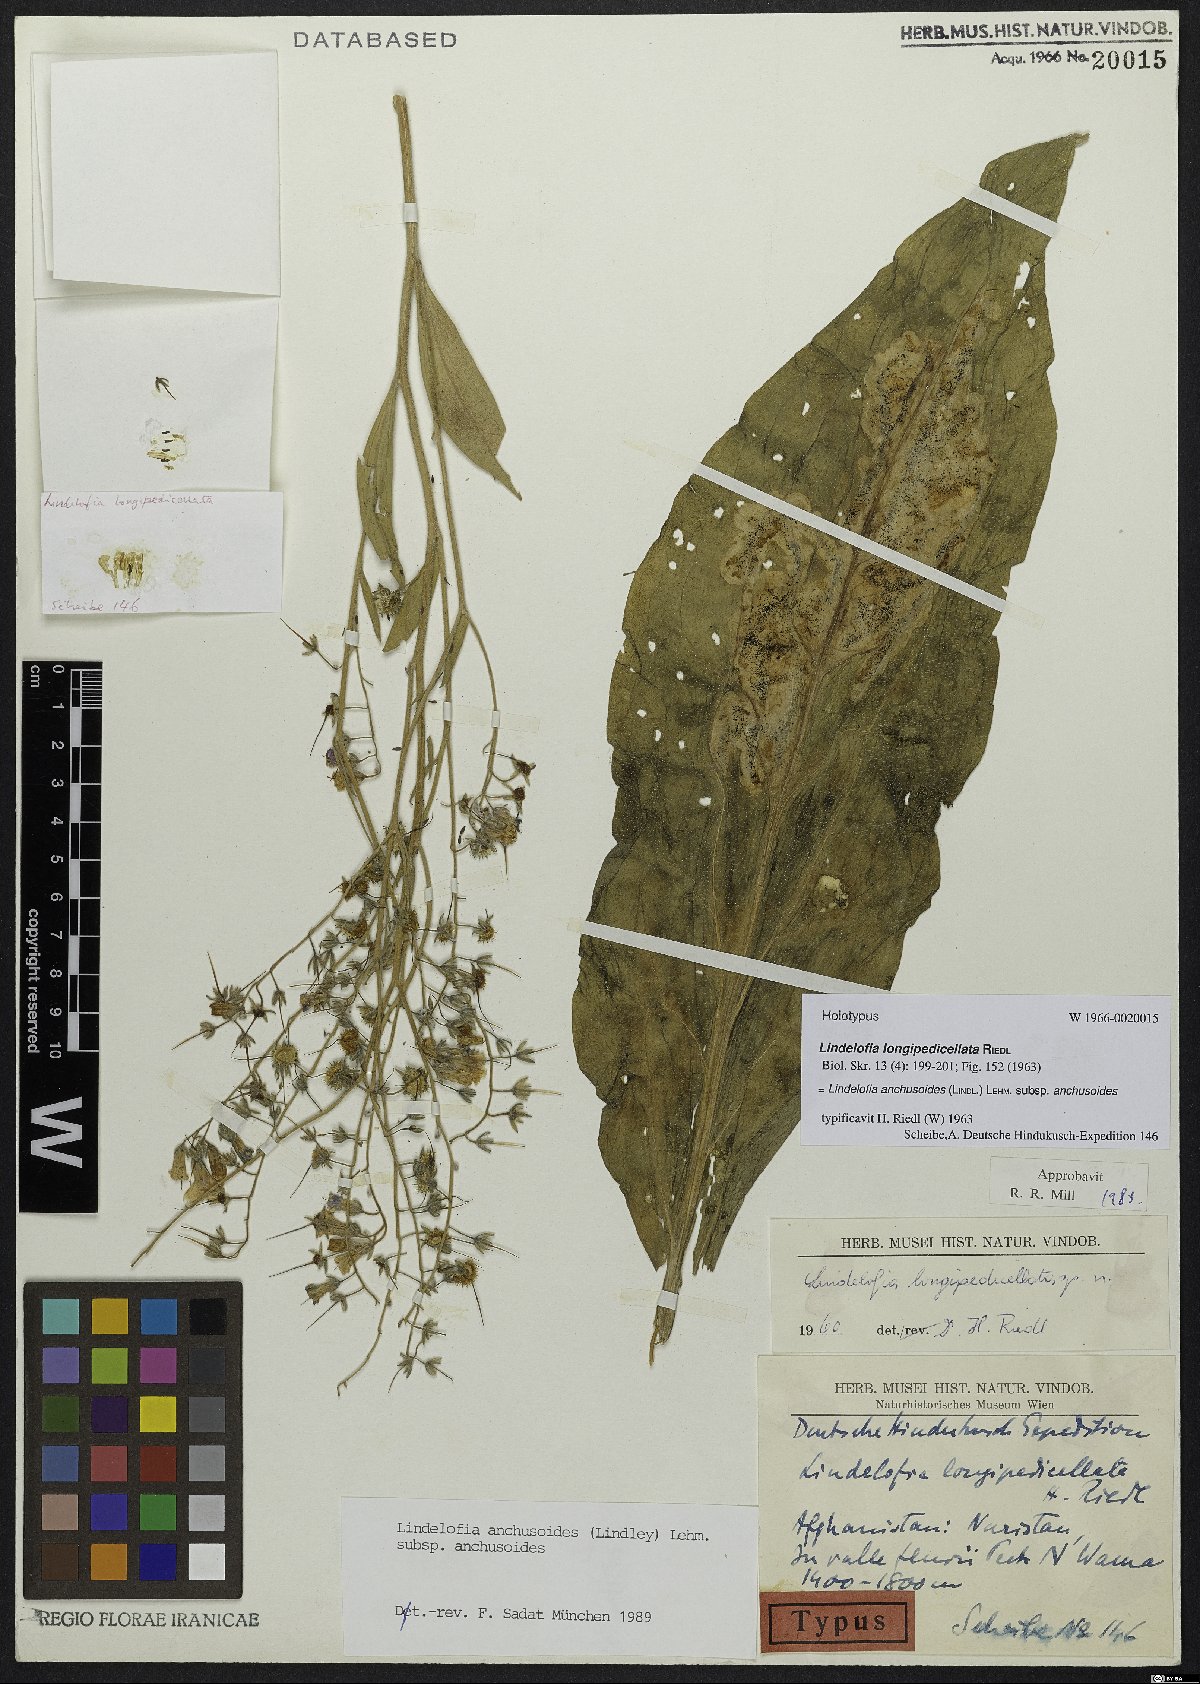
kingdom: Plantae
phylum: Tracheophyta
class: Magnoliopsida
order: Boraginales
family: Boraginaceae
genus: Lindelofia
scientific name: Lindelofia anchusoides
